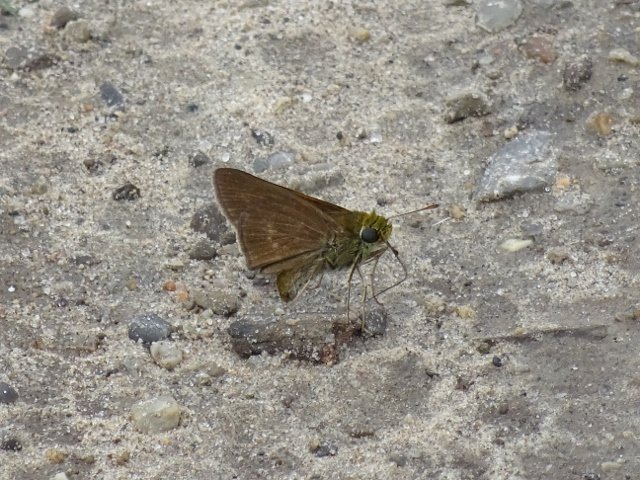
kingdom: Animalia
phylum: Arthropoda
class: Insecta
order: Lepidoptera
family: Hesperiidae
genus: Euphyes
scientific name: Euphyes vestris
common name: Dun Skipper
